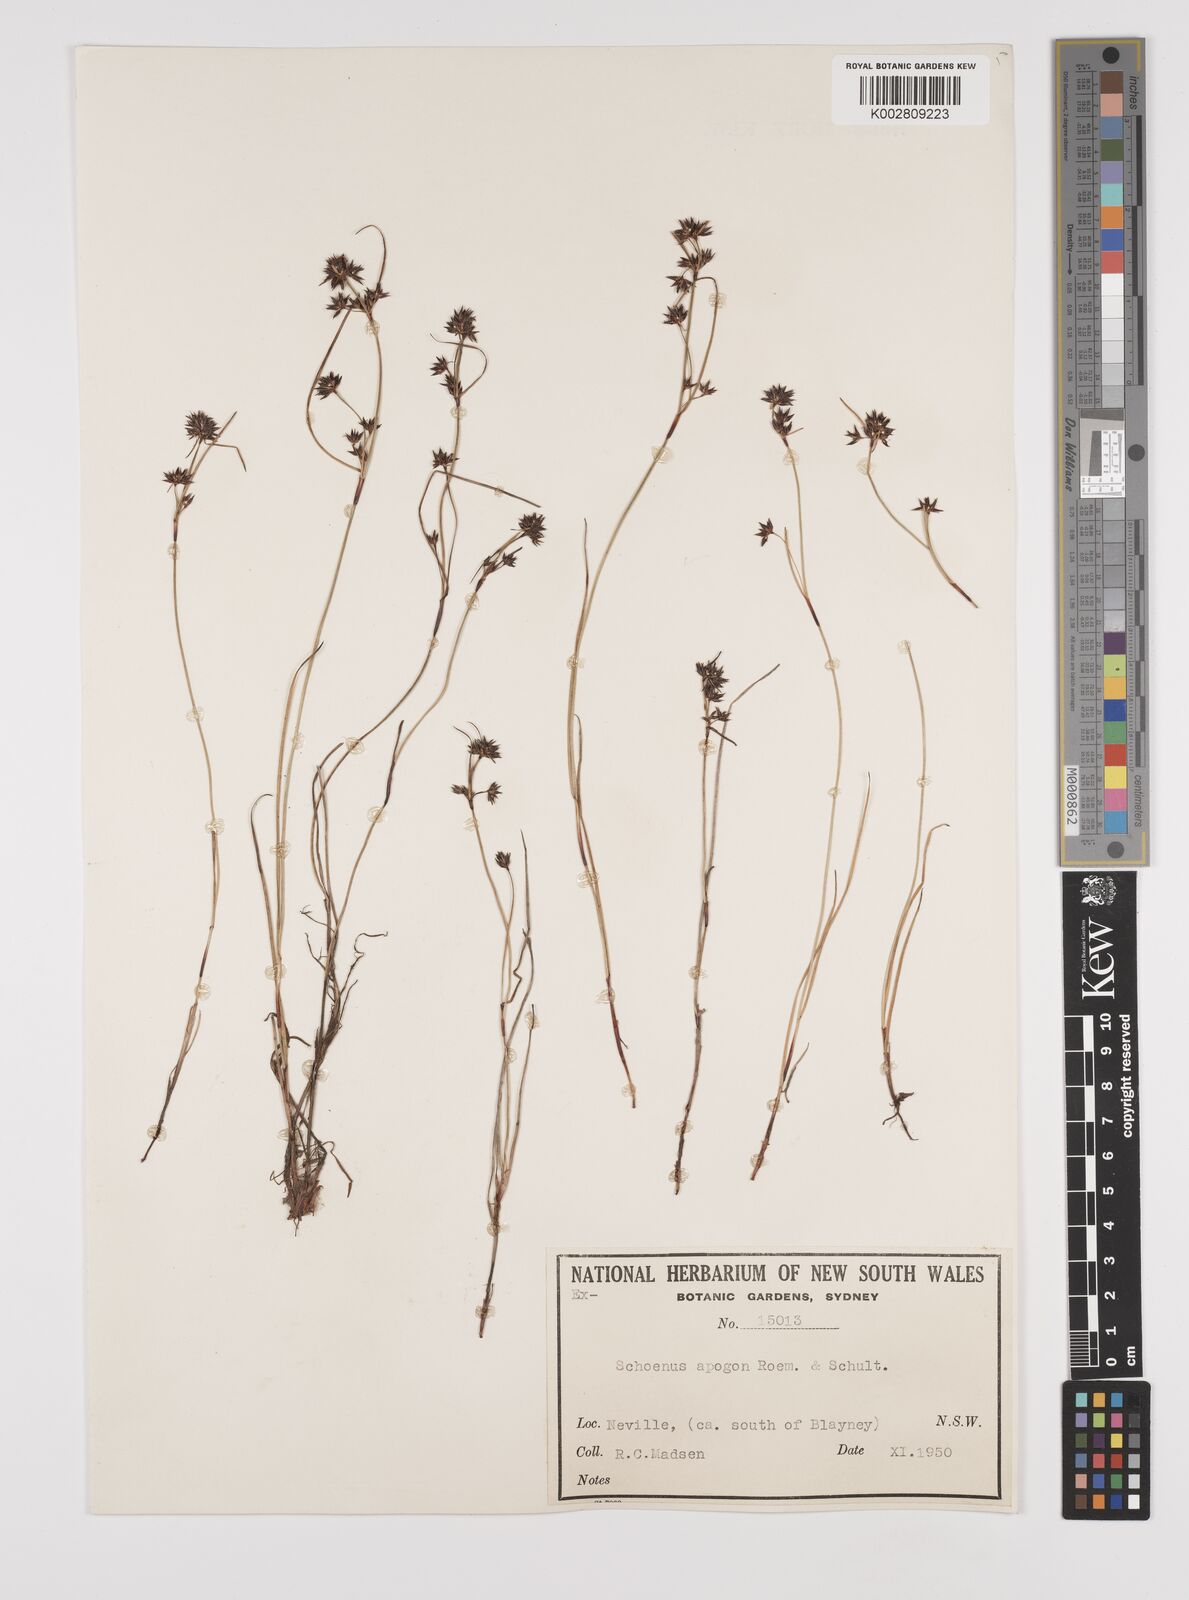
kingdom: Plantae
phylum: Tracheophyta
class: Liliopsida
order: Poales
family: Cyperaceae
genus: Schoenus
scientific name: Schoenus apogon
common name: Smooth bogrush
